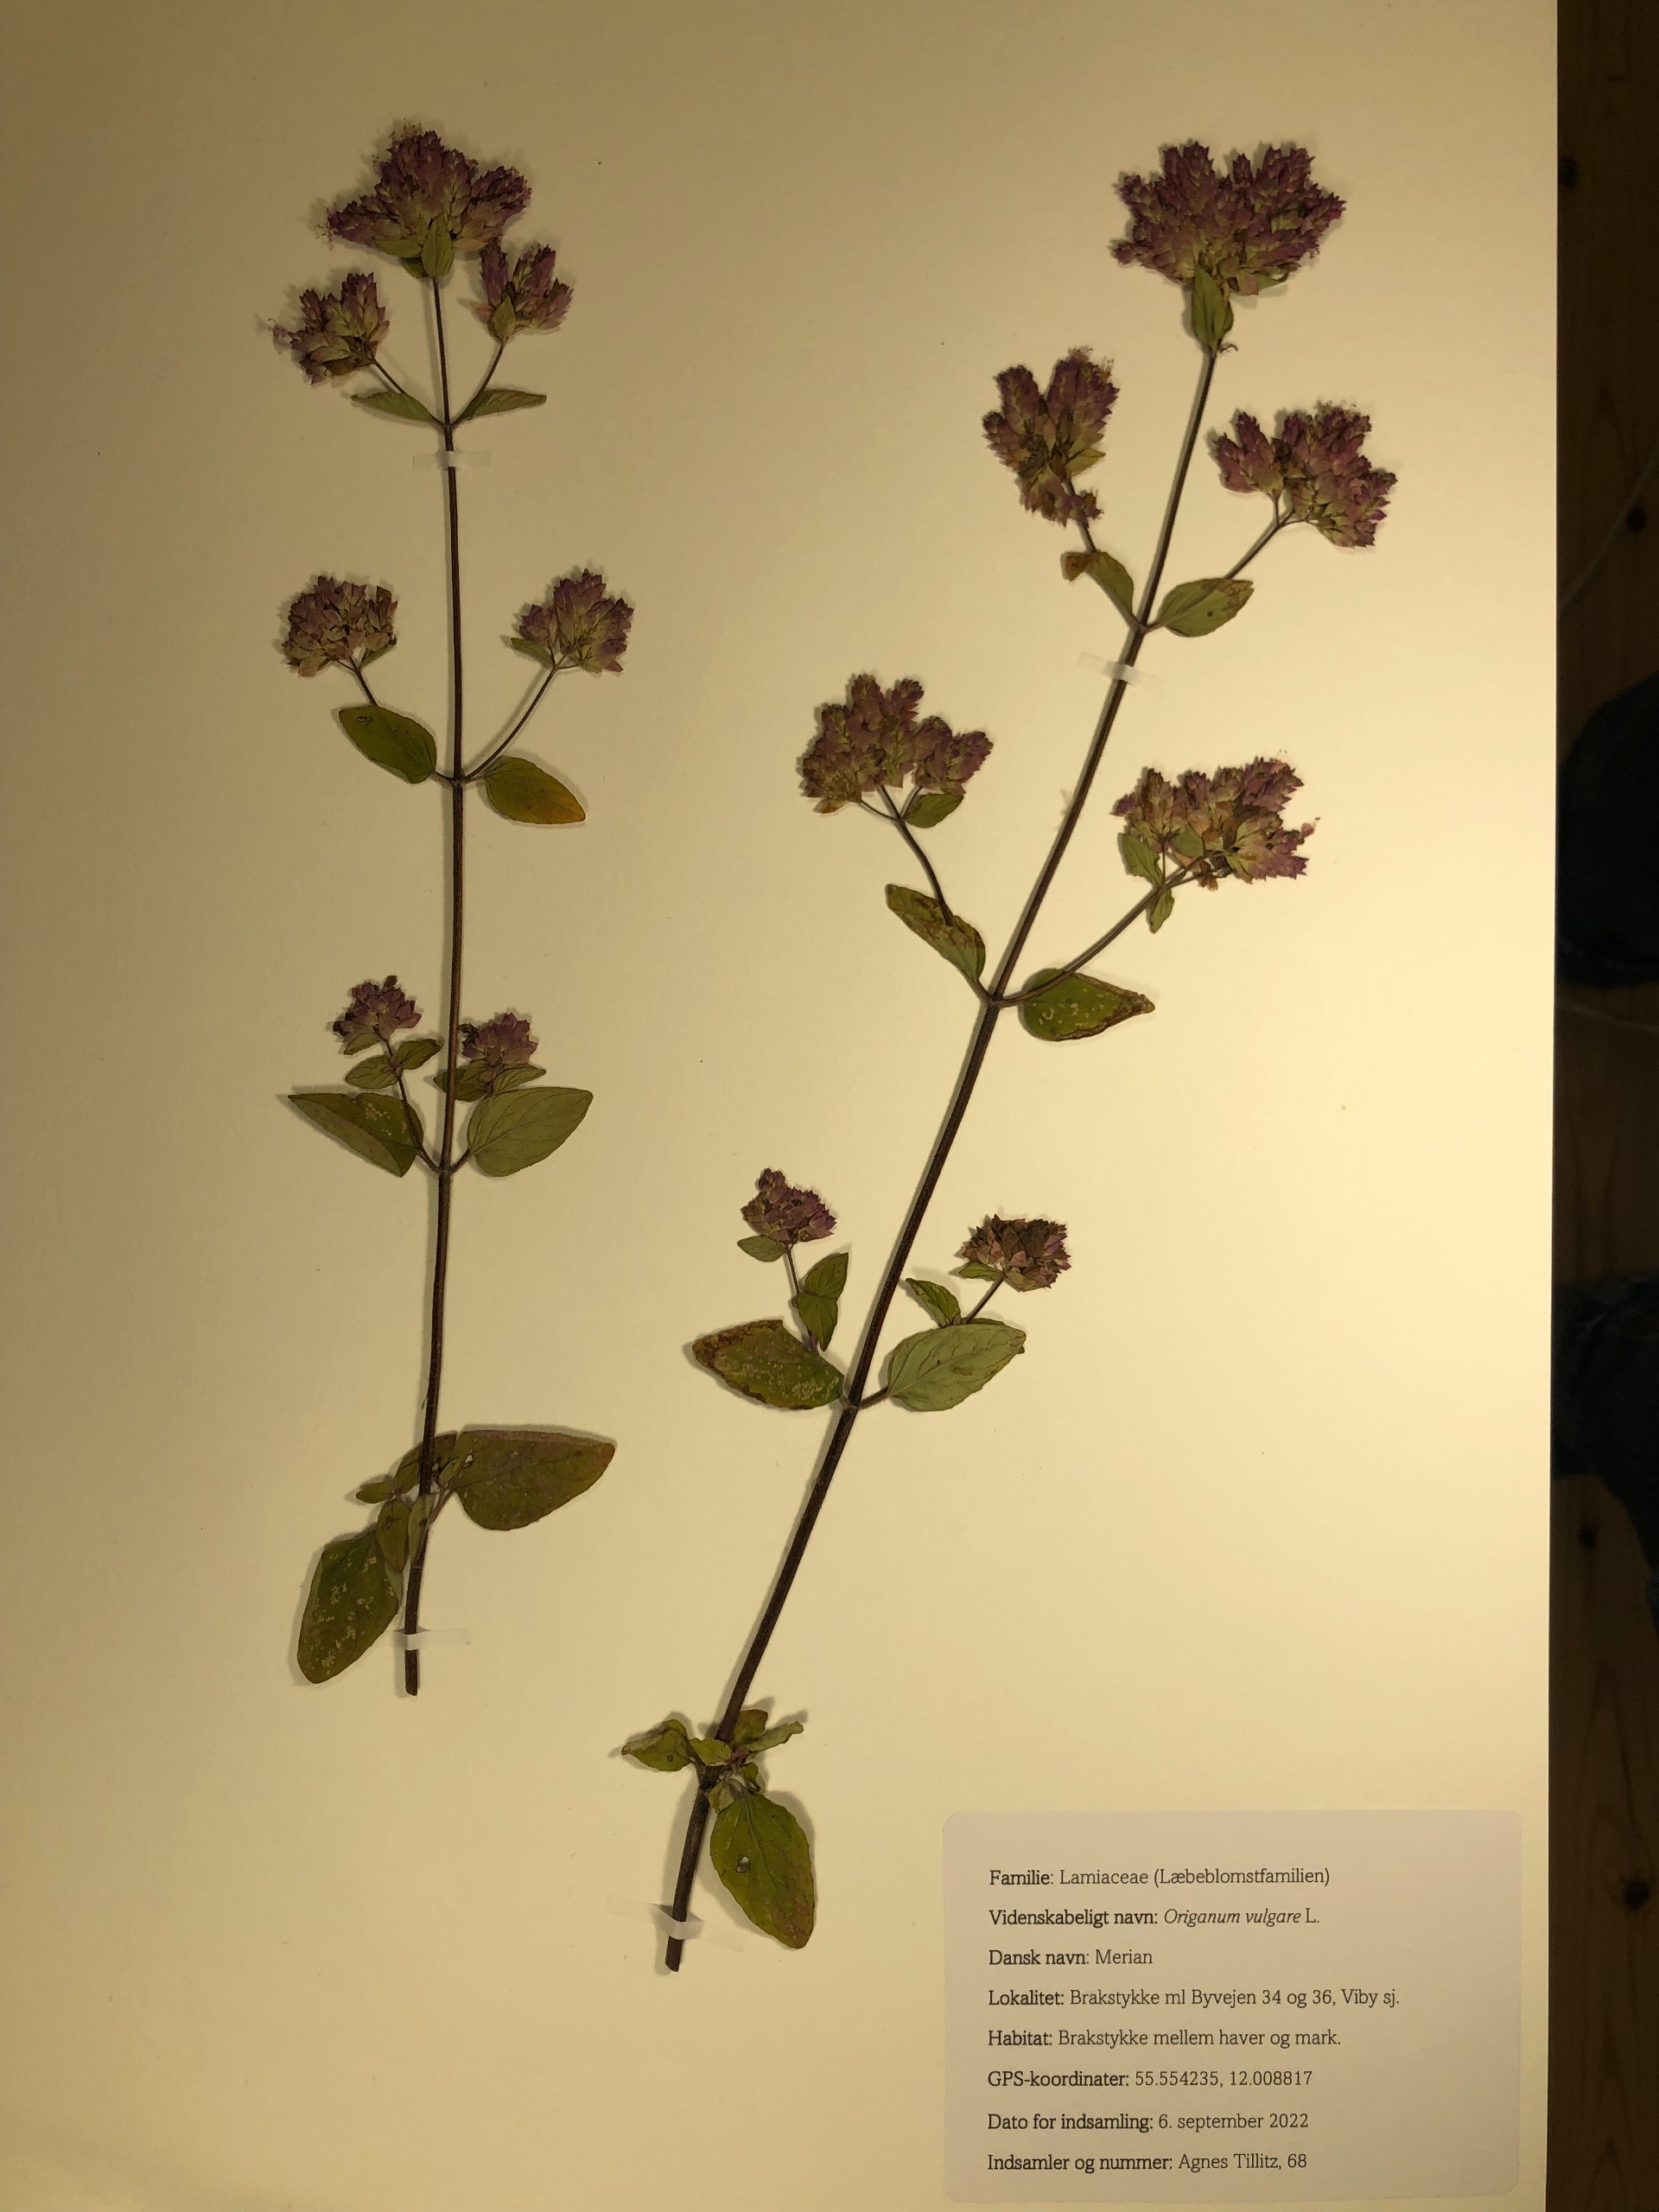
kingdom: Plantae
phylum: Tracheophyta
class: Magnoliopsida
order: Lamiales
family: Lamiaceae
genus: Origanum
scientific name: Origanum vulgare
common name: Merian
